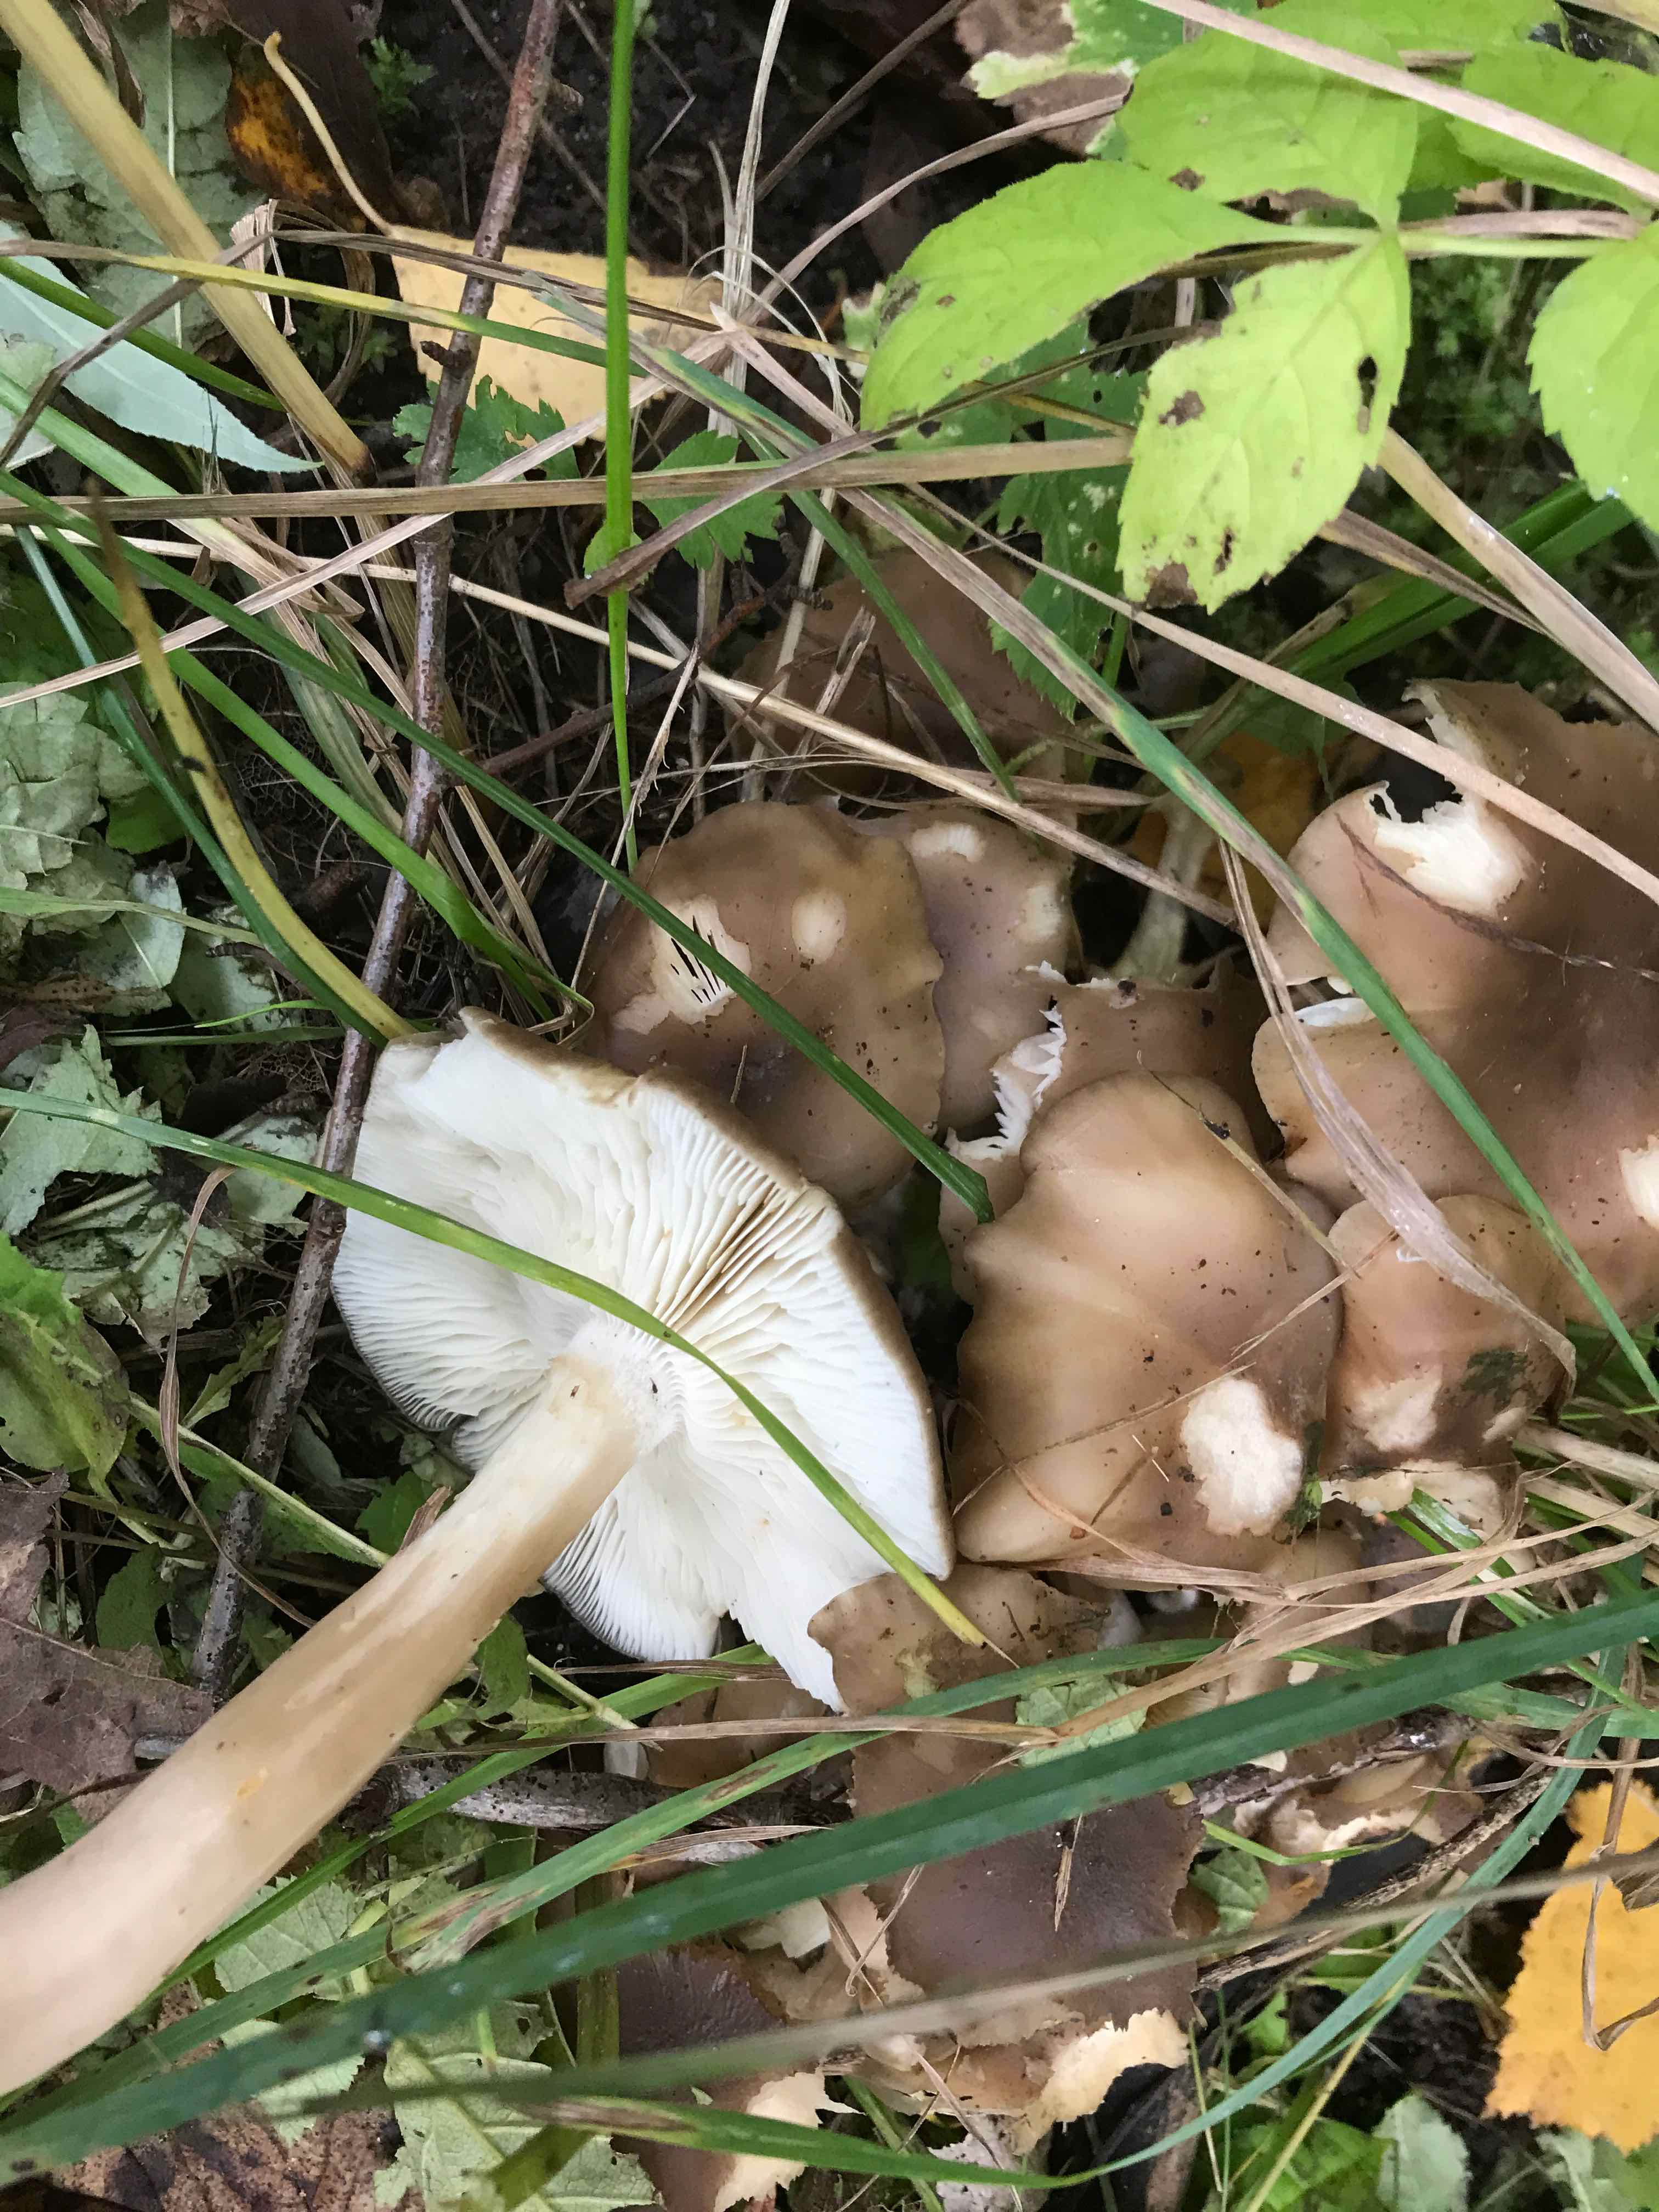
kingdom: Fungi
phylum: Basidiomycota
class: Agaricomycetes
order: Agaricales
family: Lyophyllaceae
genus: Lyophyllum
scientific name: Lyophyllum decastes
